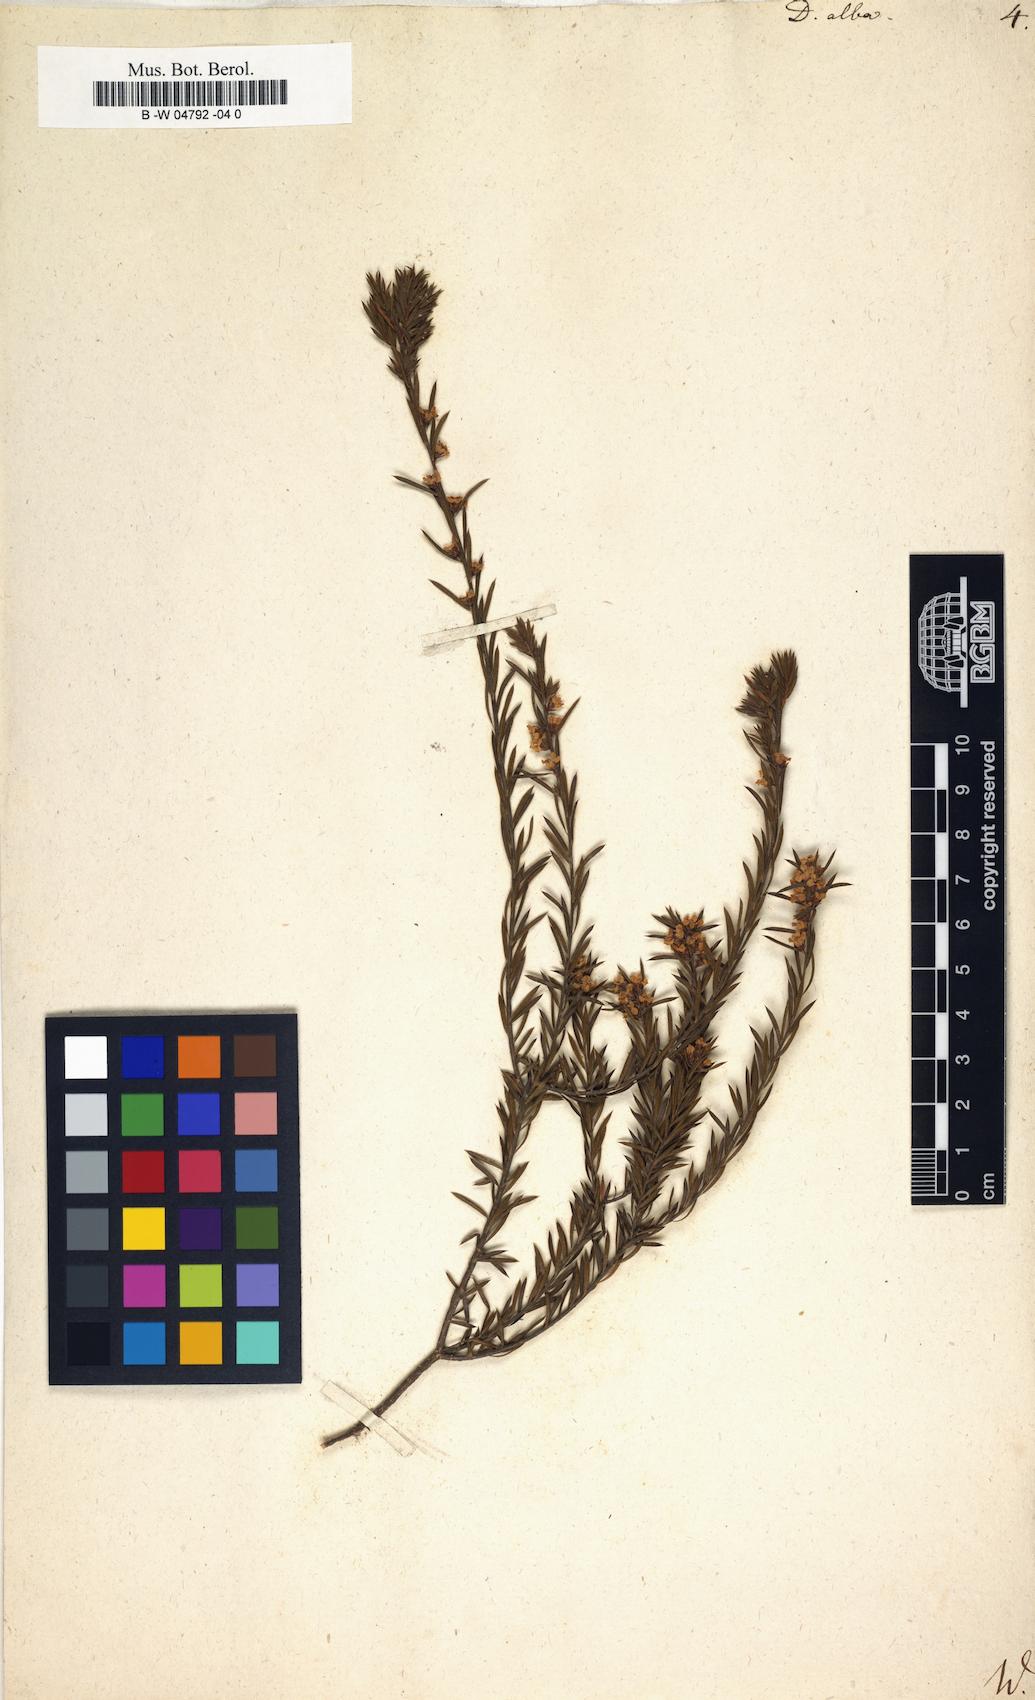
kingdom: Plantae
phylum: Tracheophyta
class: Magnoliopsida
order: Sapindales
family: Rutaceae
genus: Coleonema
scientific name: Coleonema album
